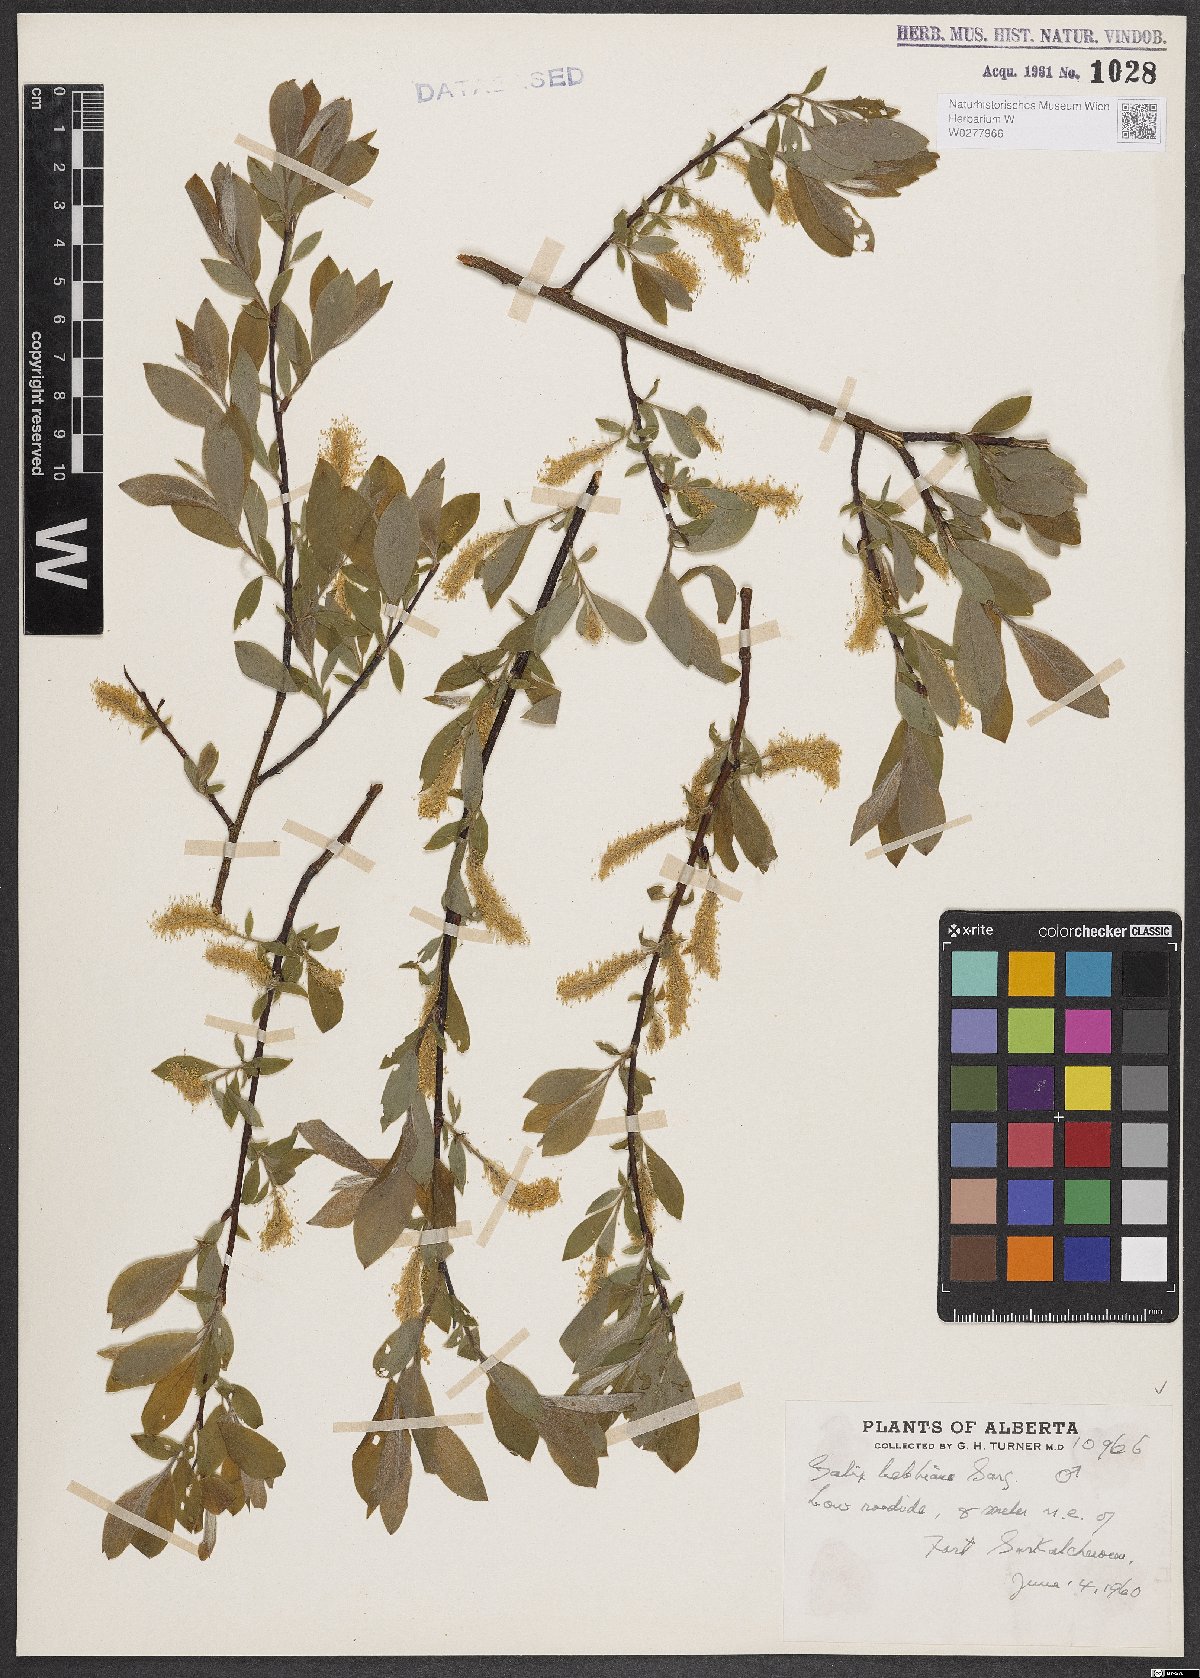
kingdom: Plantae
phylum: Tracheophyta
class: Magnoliopsida
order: Malpighiales
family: Salicaceae
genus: Salix
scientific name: Salix bebbiana
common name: Bebb's willow
